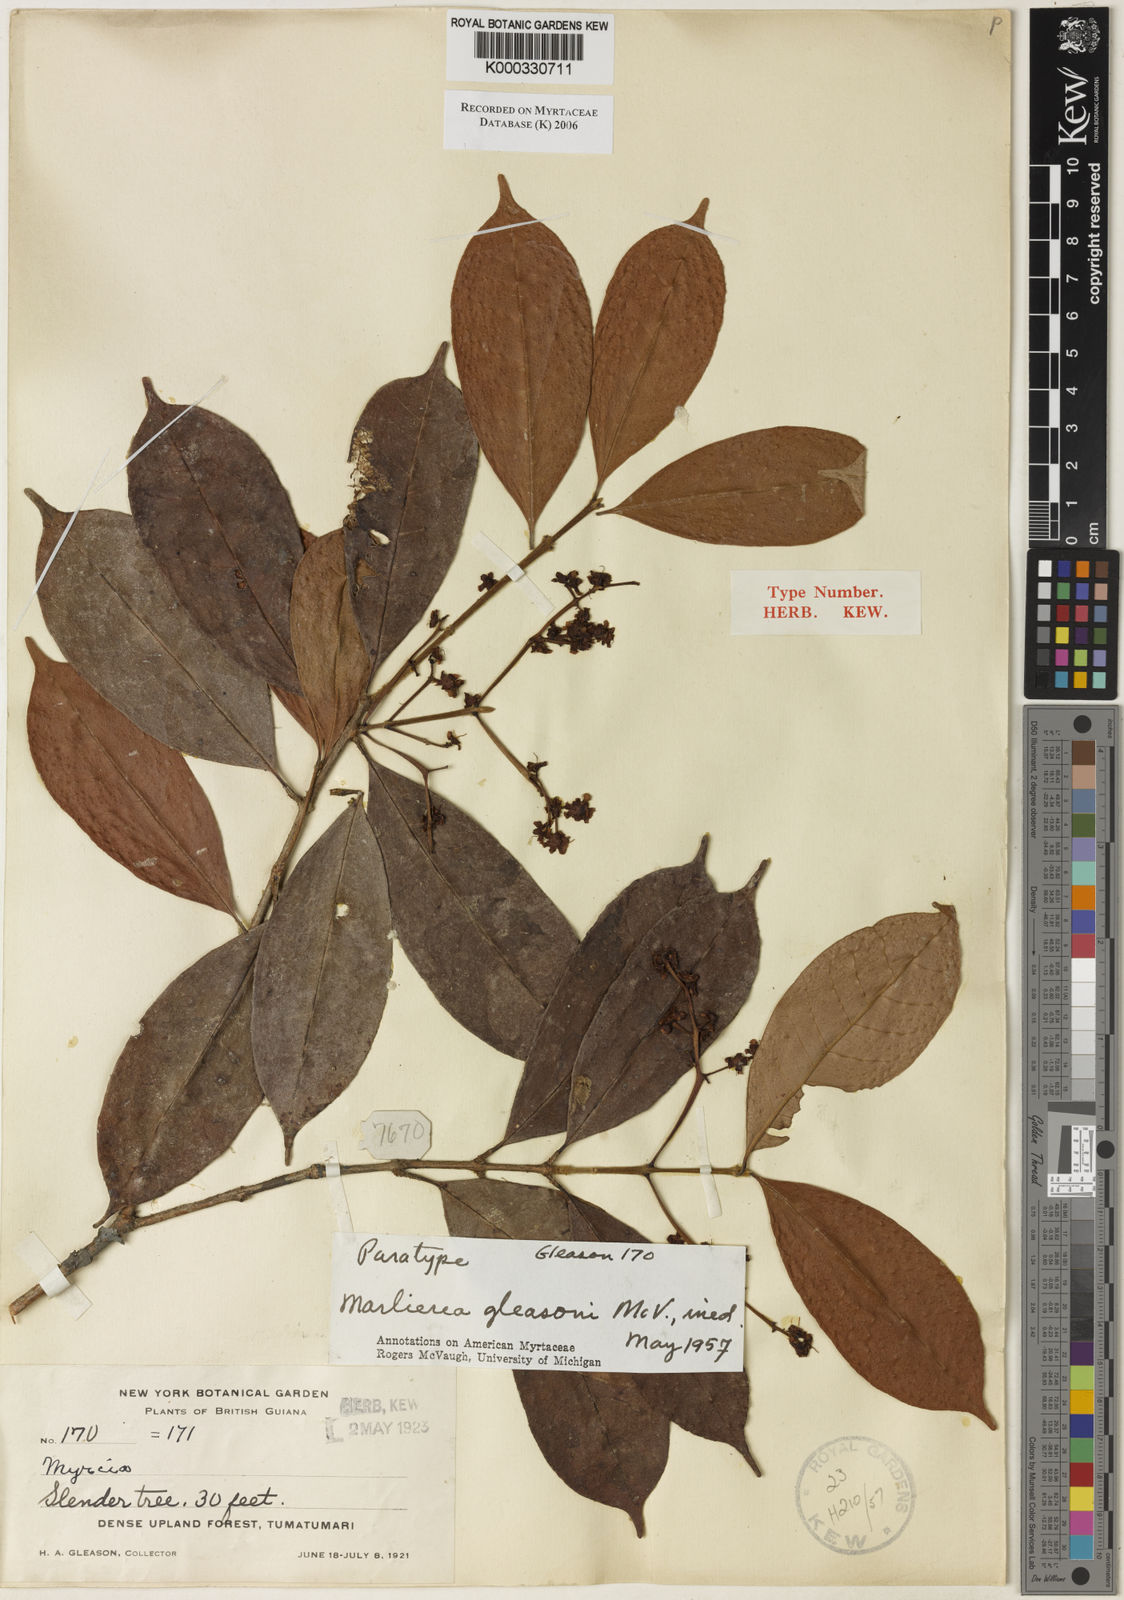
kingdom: Plantae
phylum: Tracheophyta
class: Magnoliopsida
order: Myrtales
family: Myrtaceae
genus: Myrcia
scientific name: Myrcia decorticans
